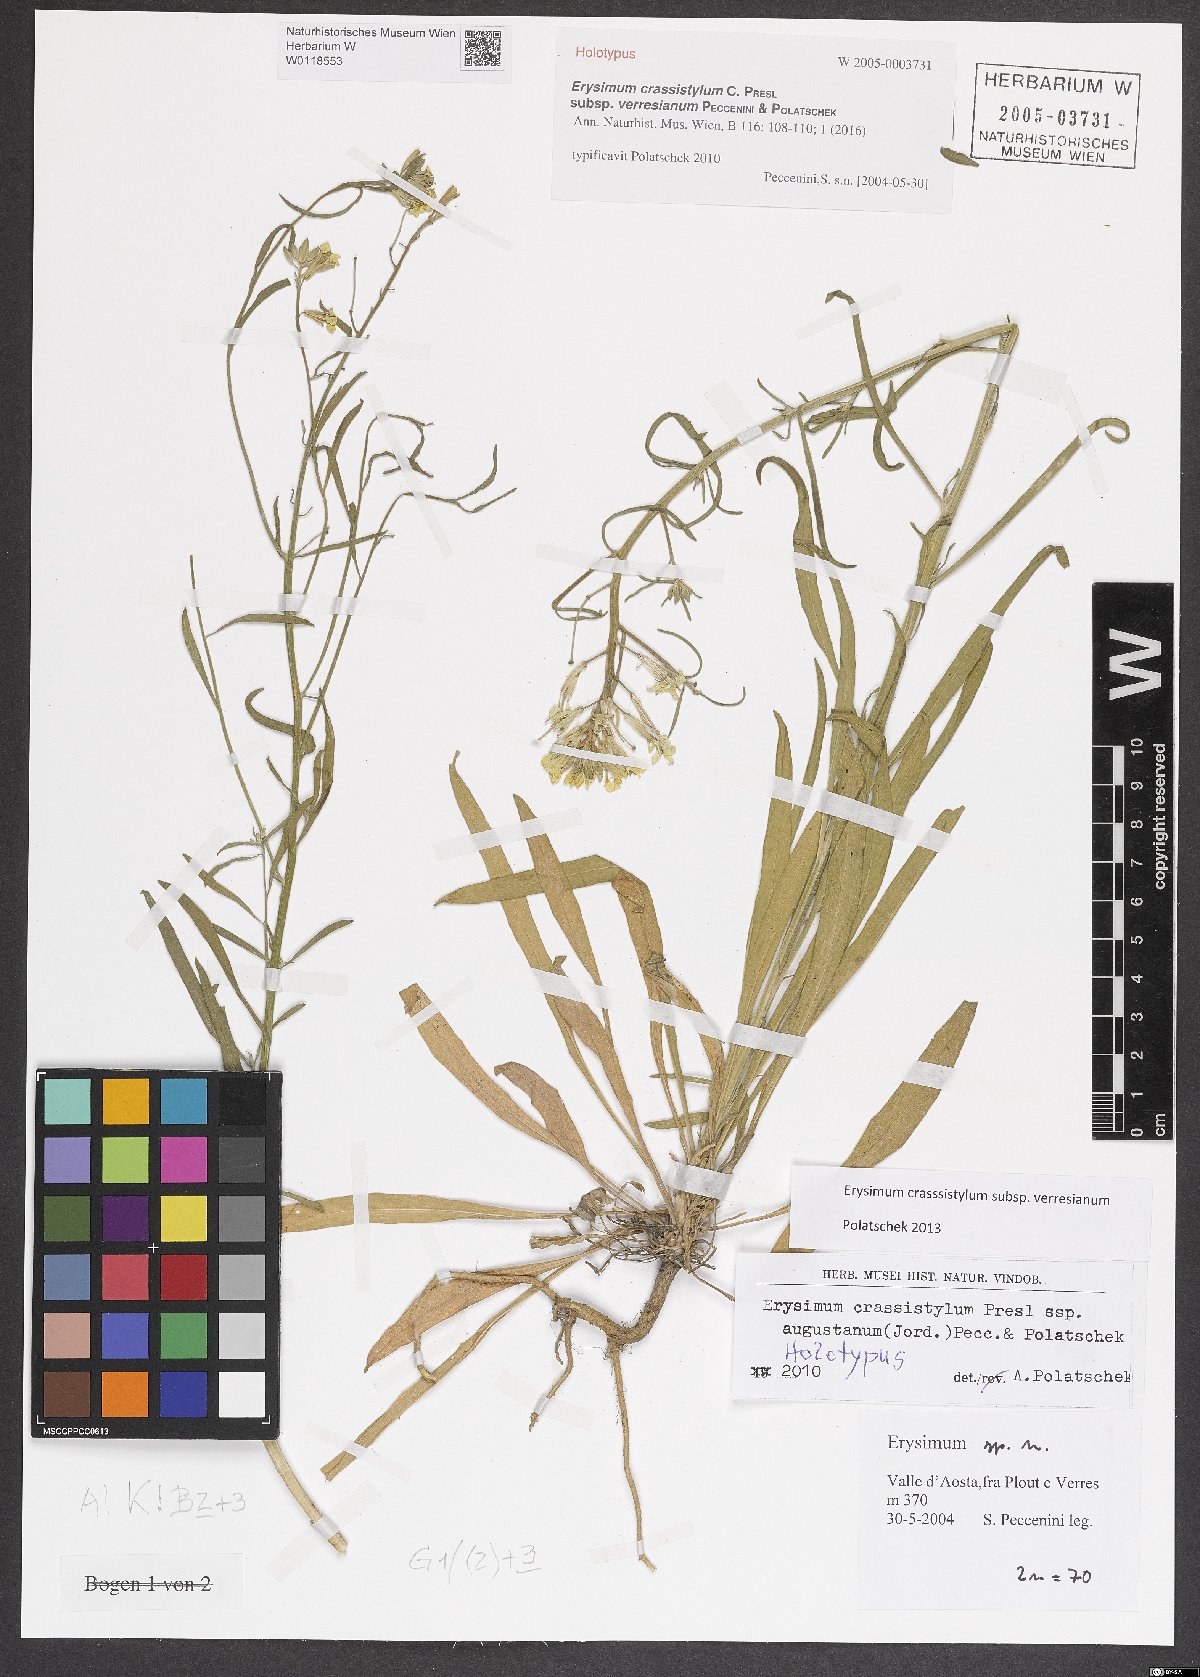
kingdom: Plantae
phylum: Tracheophyta
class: Magnoliopsida
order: Brassicales
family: Brassicaceae
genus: Erysimum
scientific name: Erysimum crassistylum
